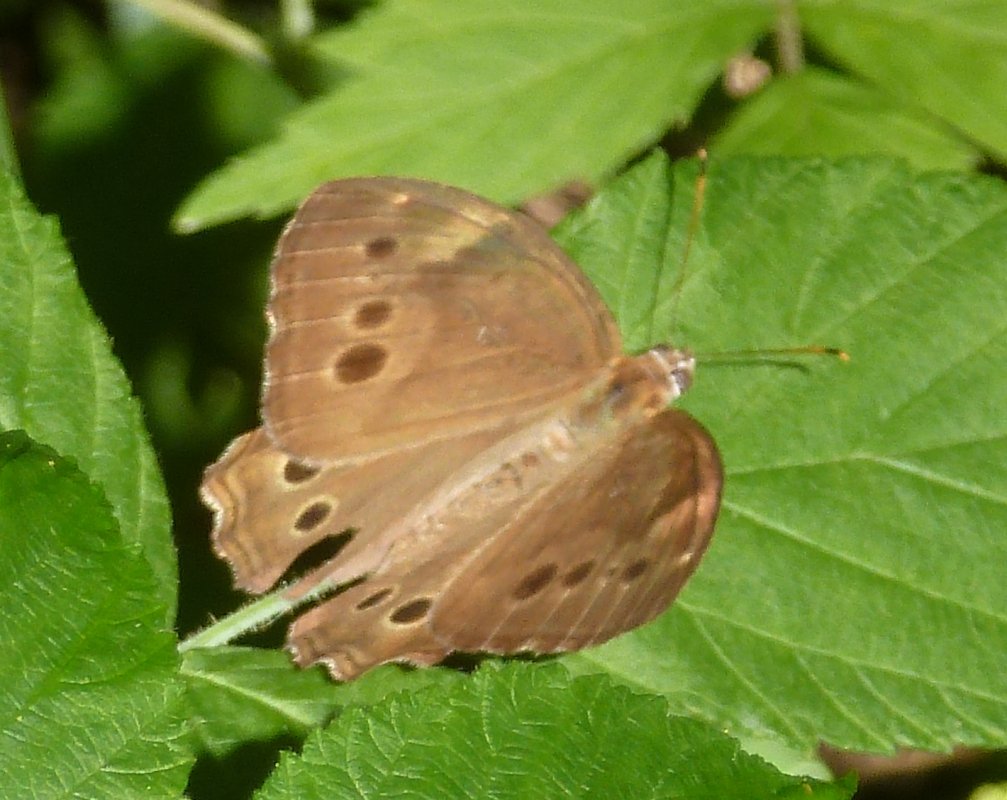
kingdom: Animalia
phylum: Arthropoda
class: Insecta
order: Lepidoptera
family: Nymphalidae
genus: Lethe
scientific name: Lethe anthedon
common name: Northern Pearly-Eye
